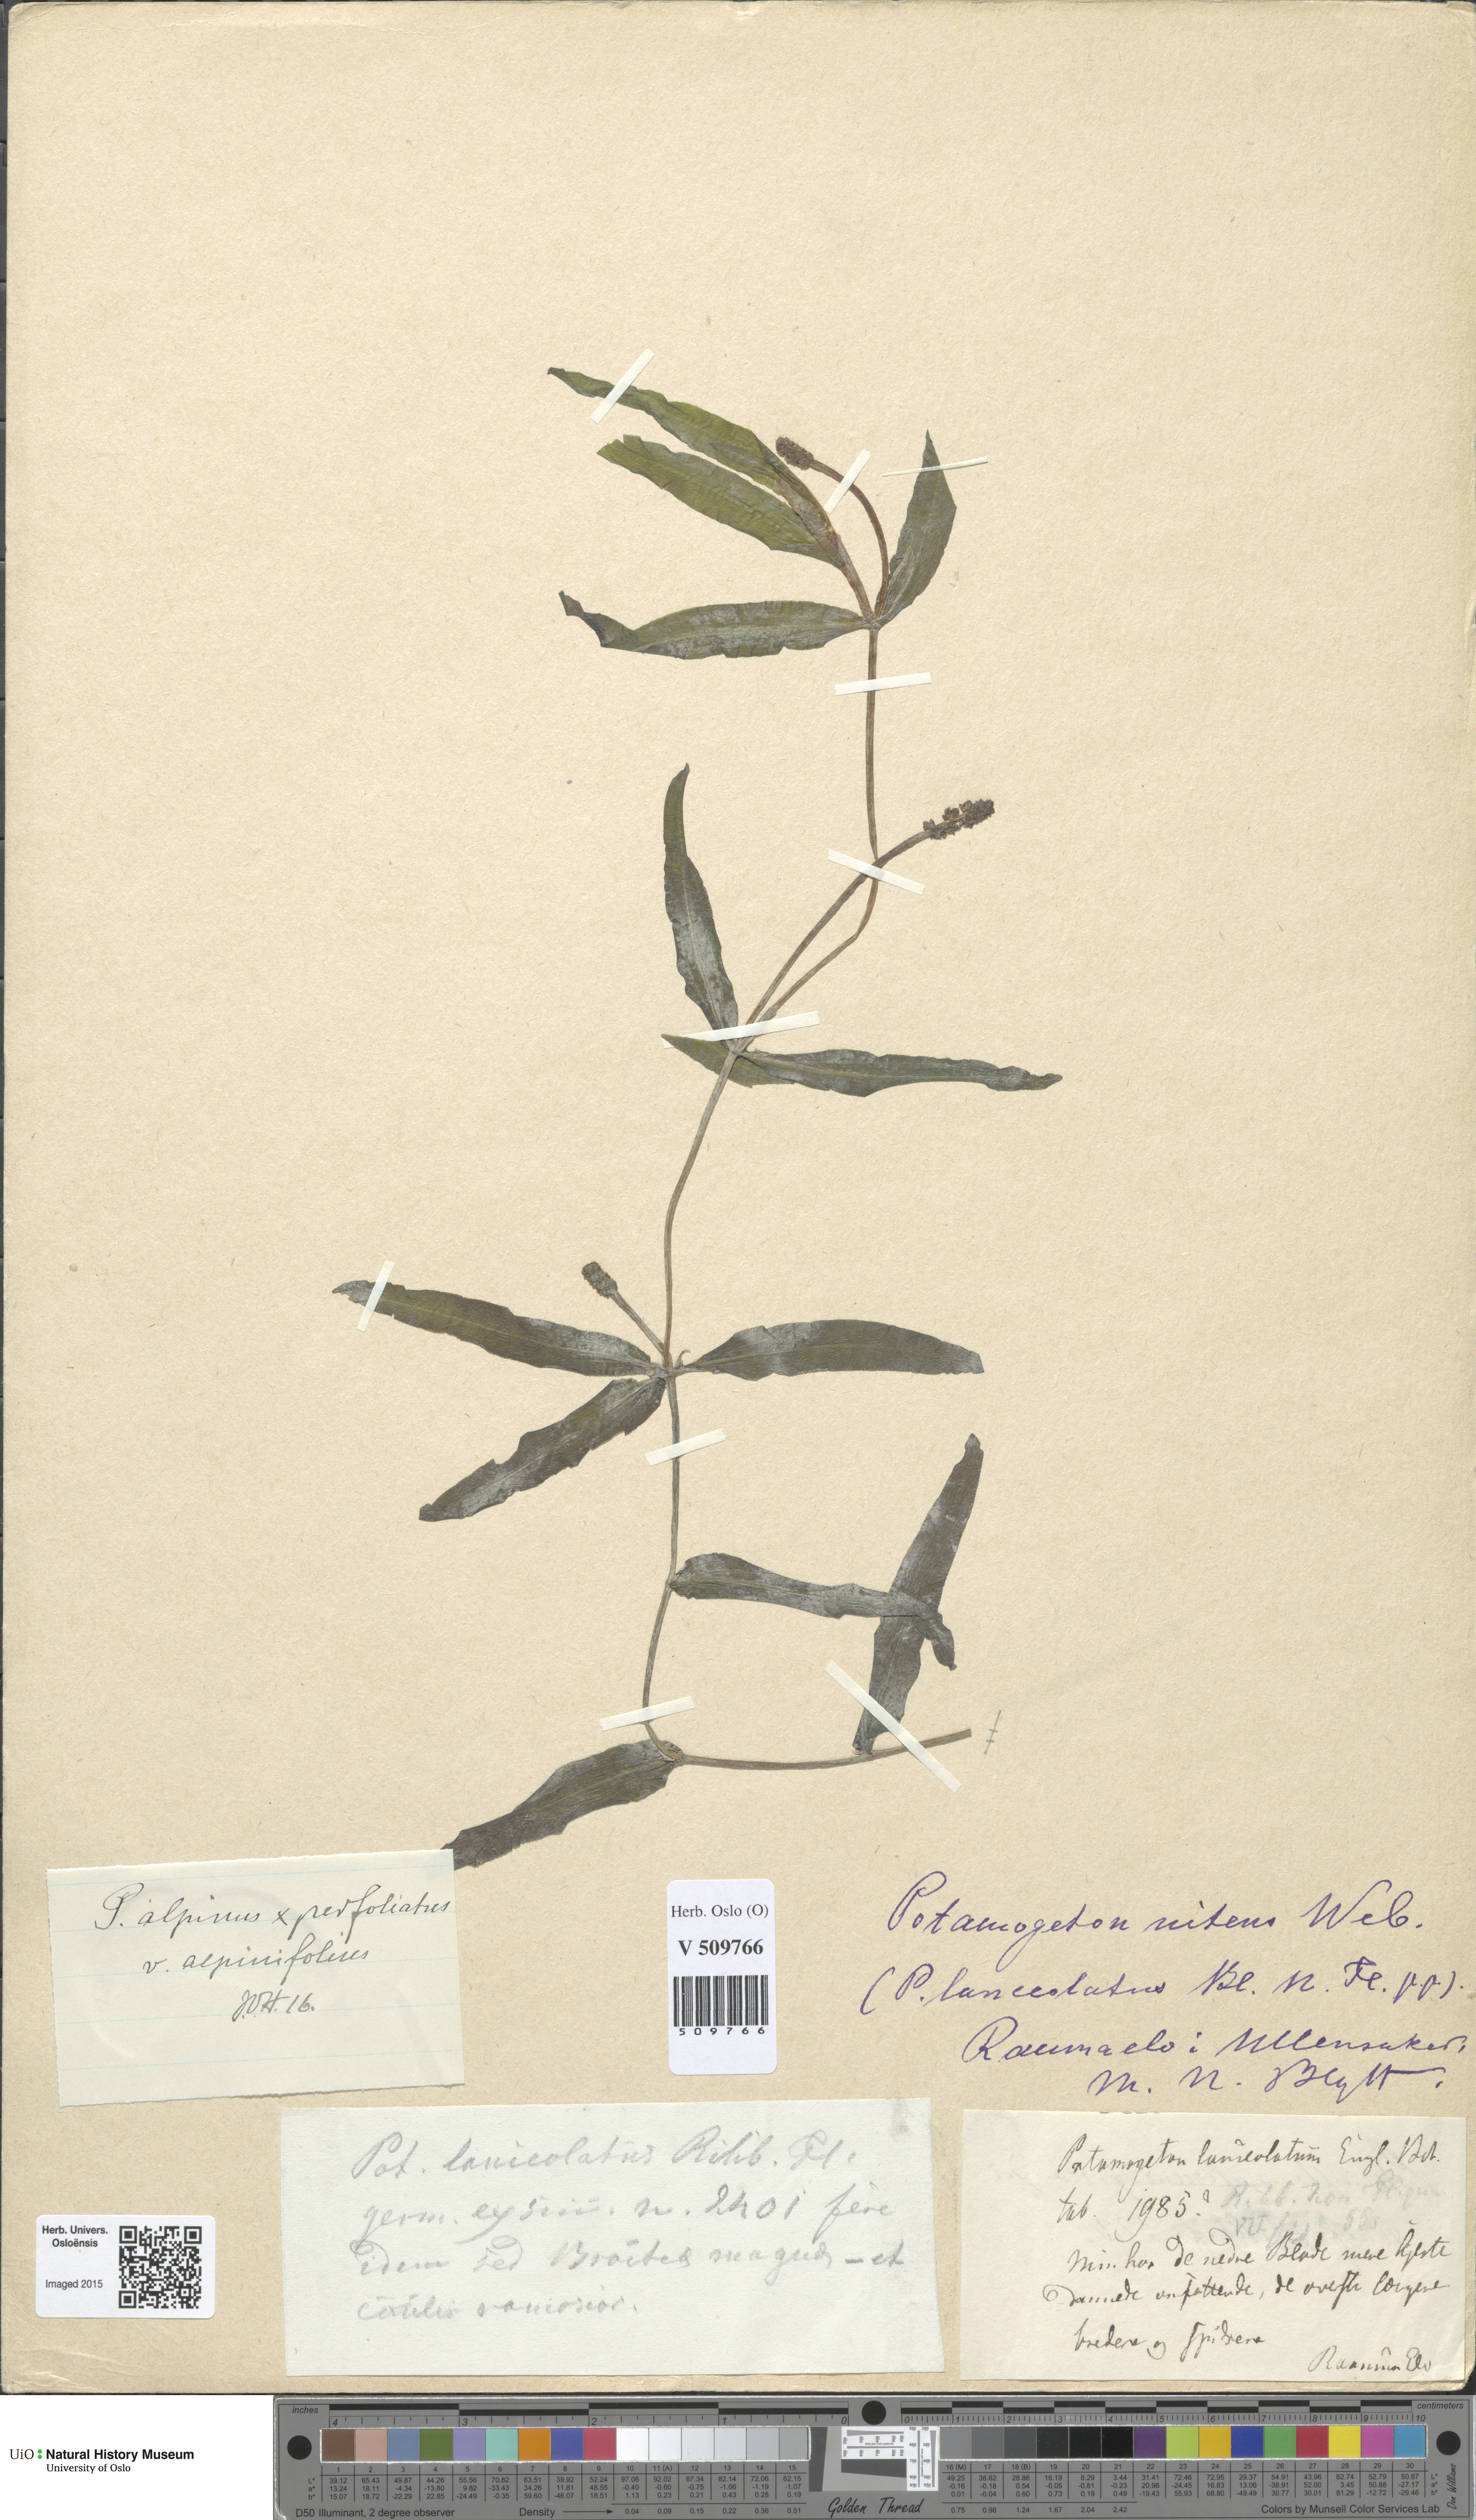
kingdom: Plantae
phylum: Tracheophyta
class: Liliopsida
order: Alismatales
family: Potamogetonaceae
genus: Potamogeton
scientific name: Potamogeton prussicus
